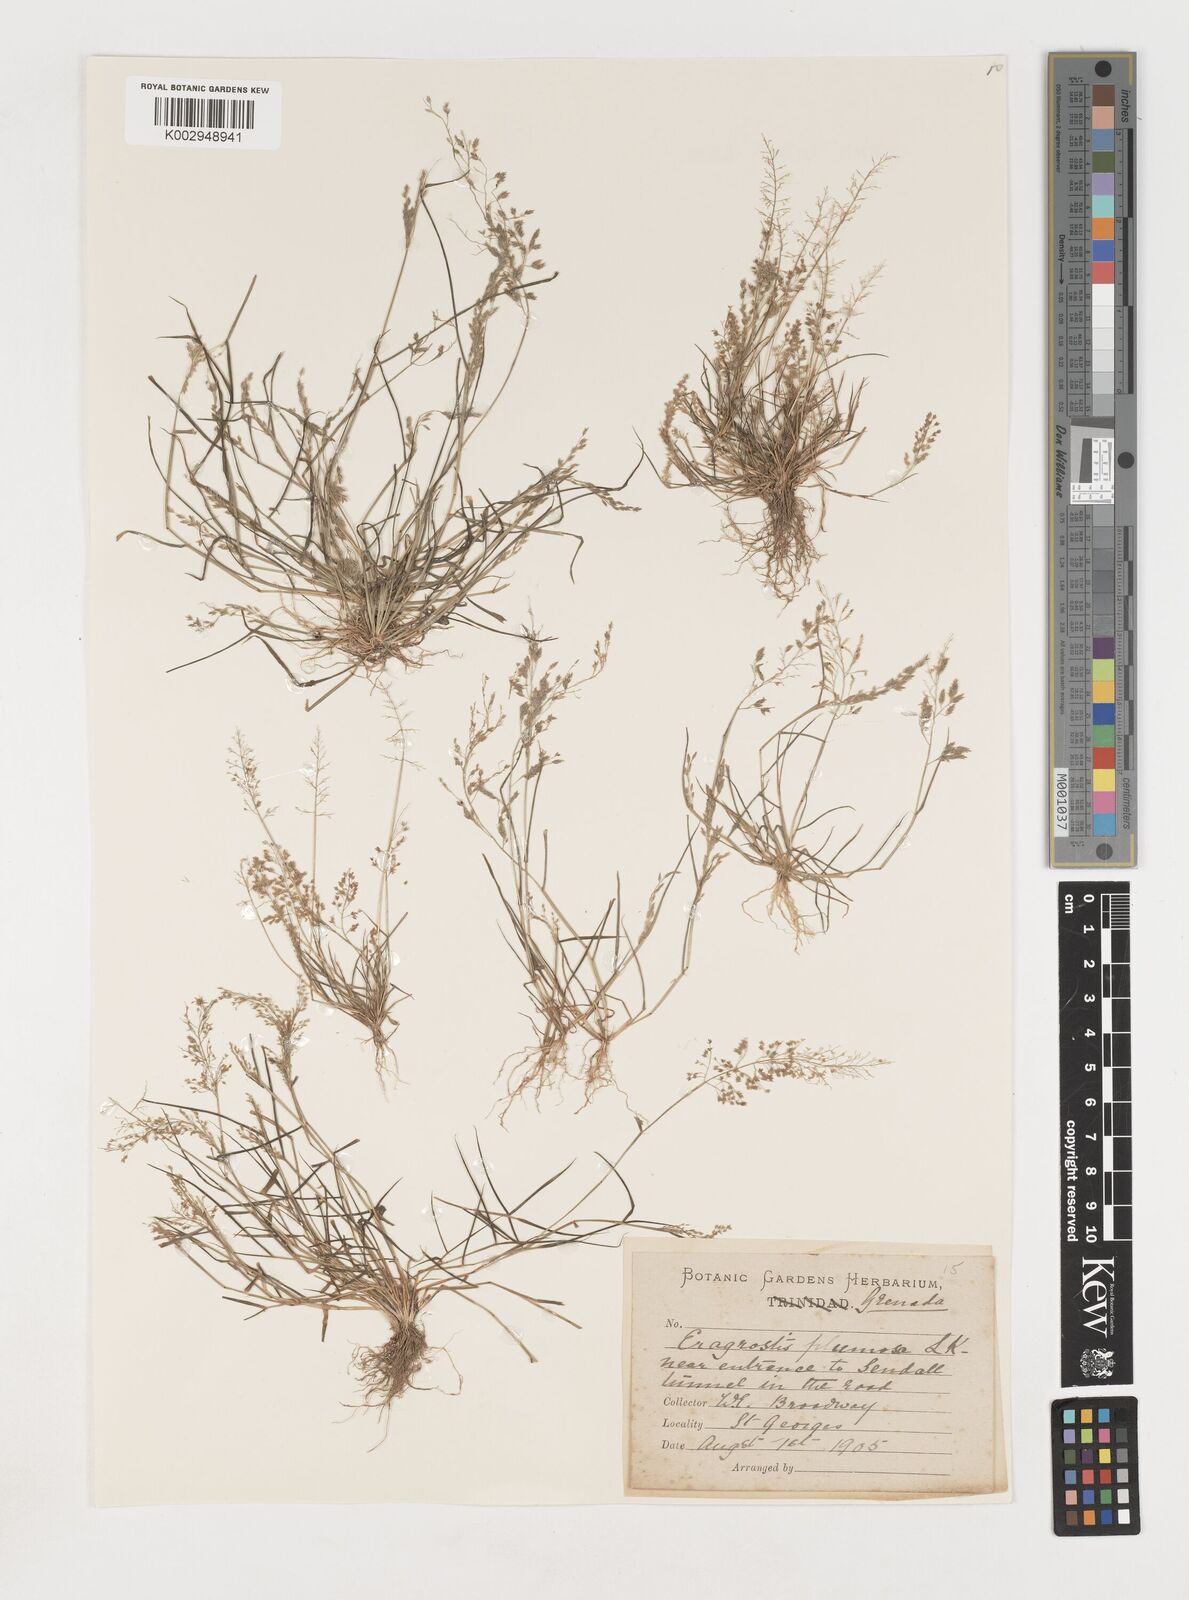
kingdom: Plantae
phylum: Tracheophyta
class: Liliopsida
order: Poales
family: Poaceae
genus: Eragrostis
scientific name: Eragrostis tenella
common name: Japanese lovegrass
